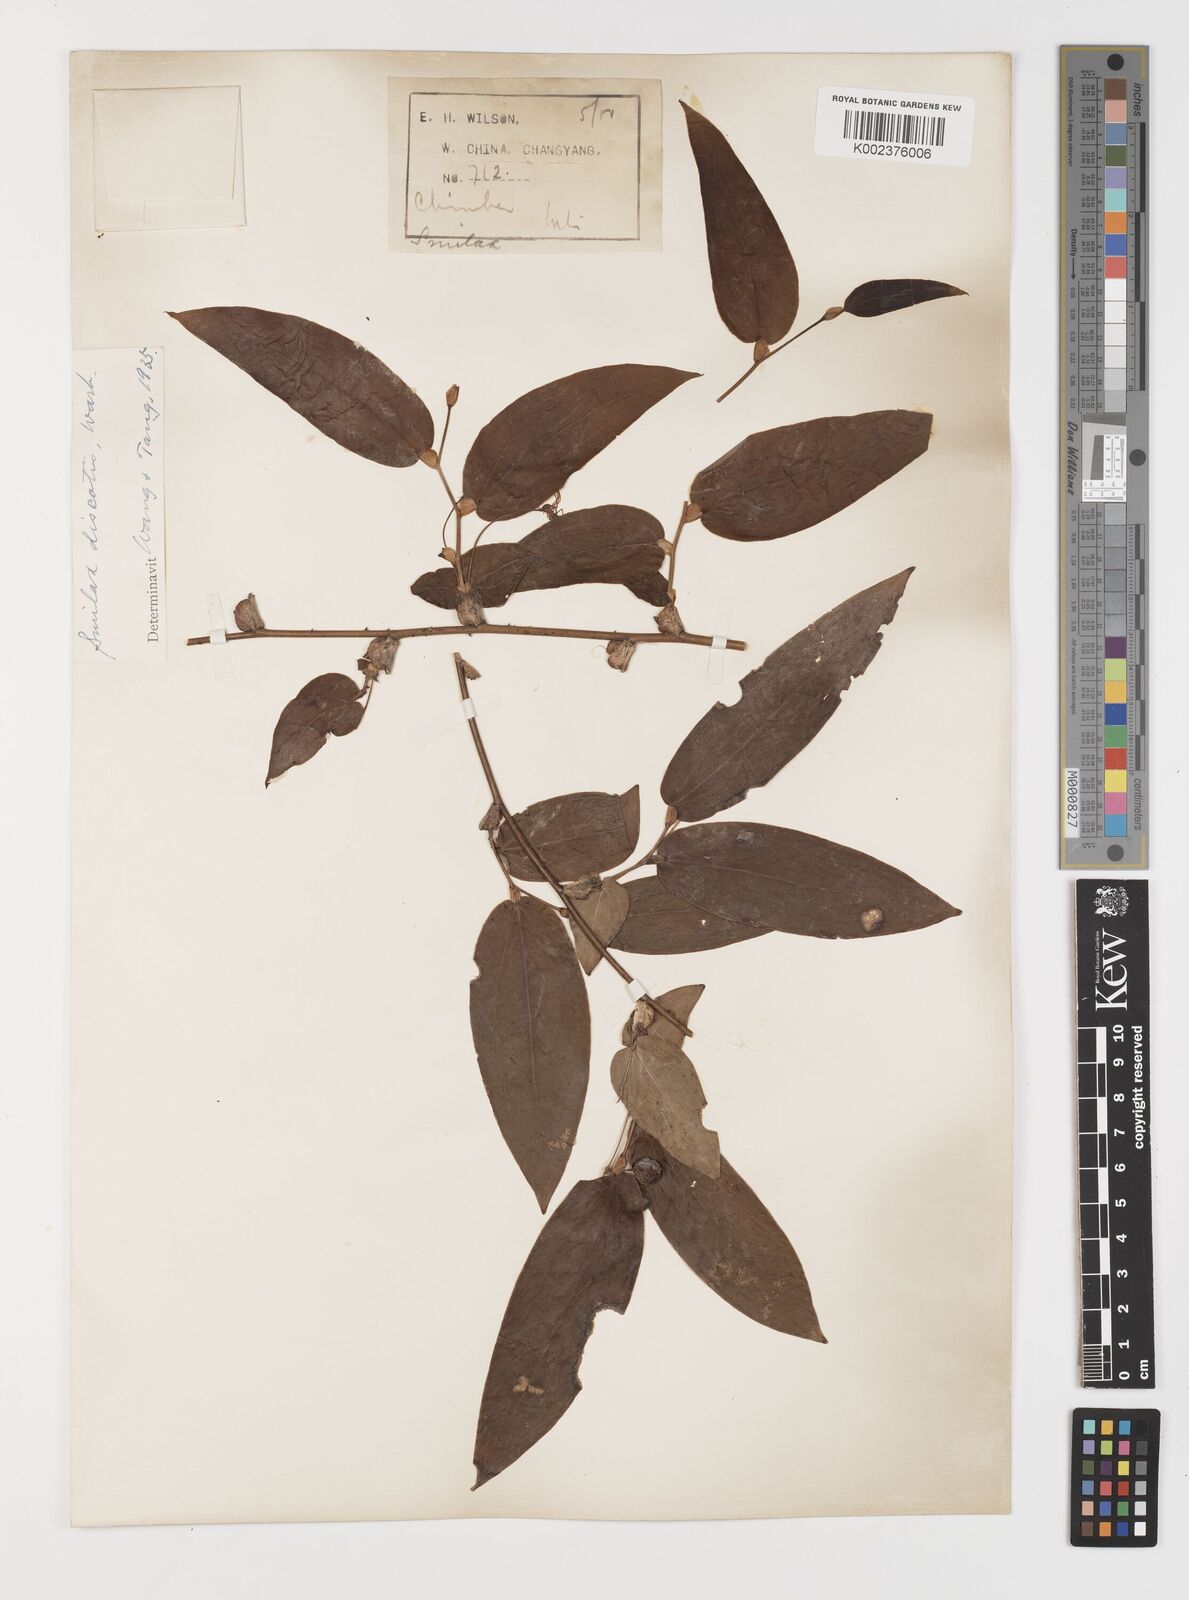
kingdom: Plantae
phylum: Tracheophyta
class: Liliopsida
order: Liliales
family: Smilacaceae
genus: Smilax
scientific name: Smilax discotis
